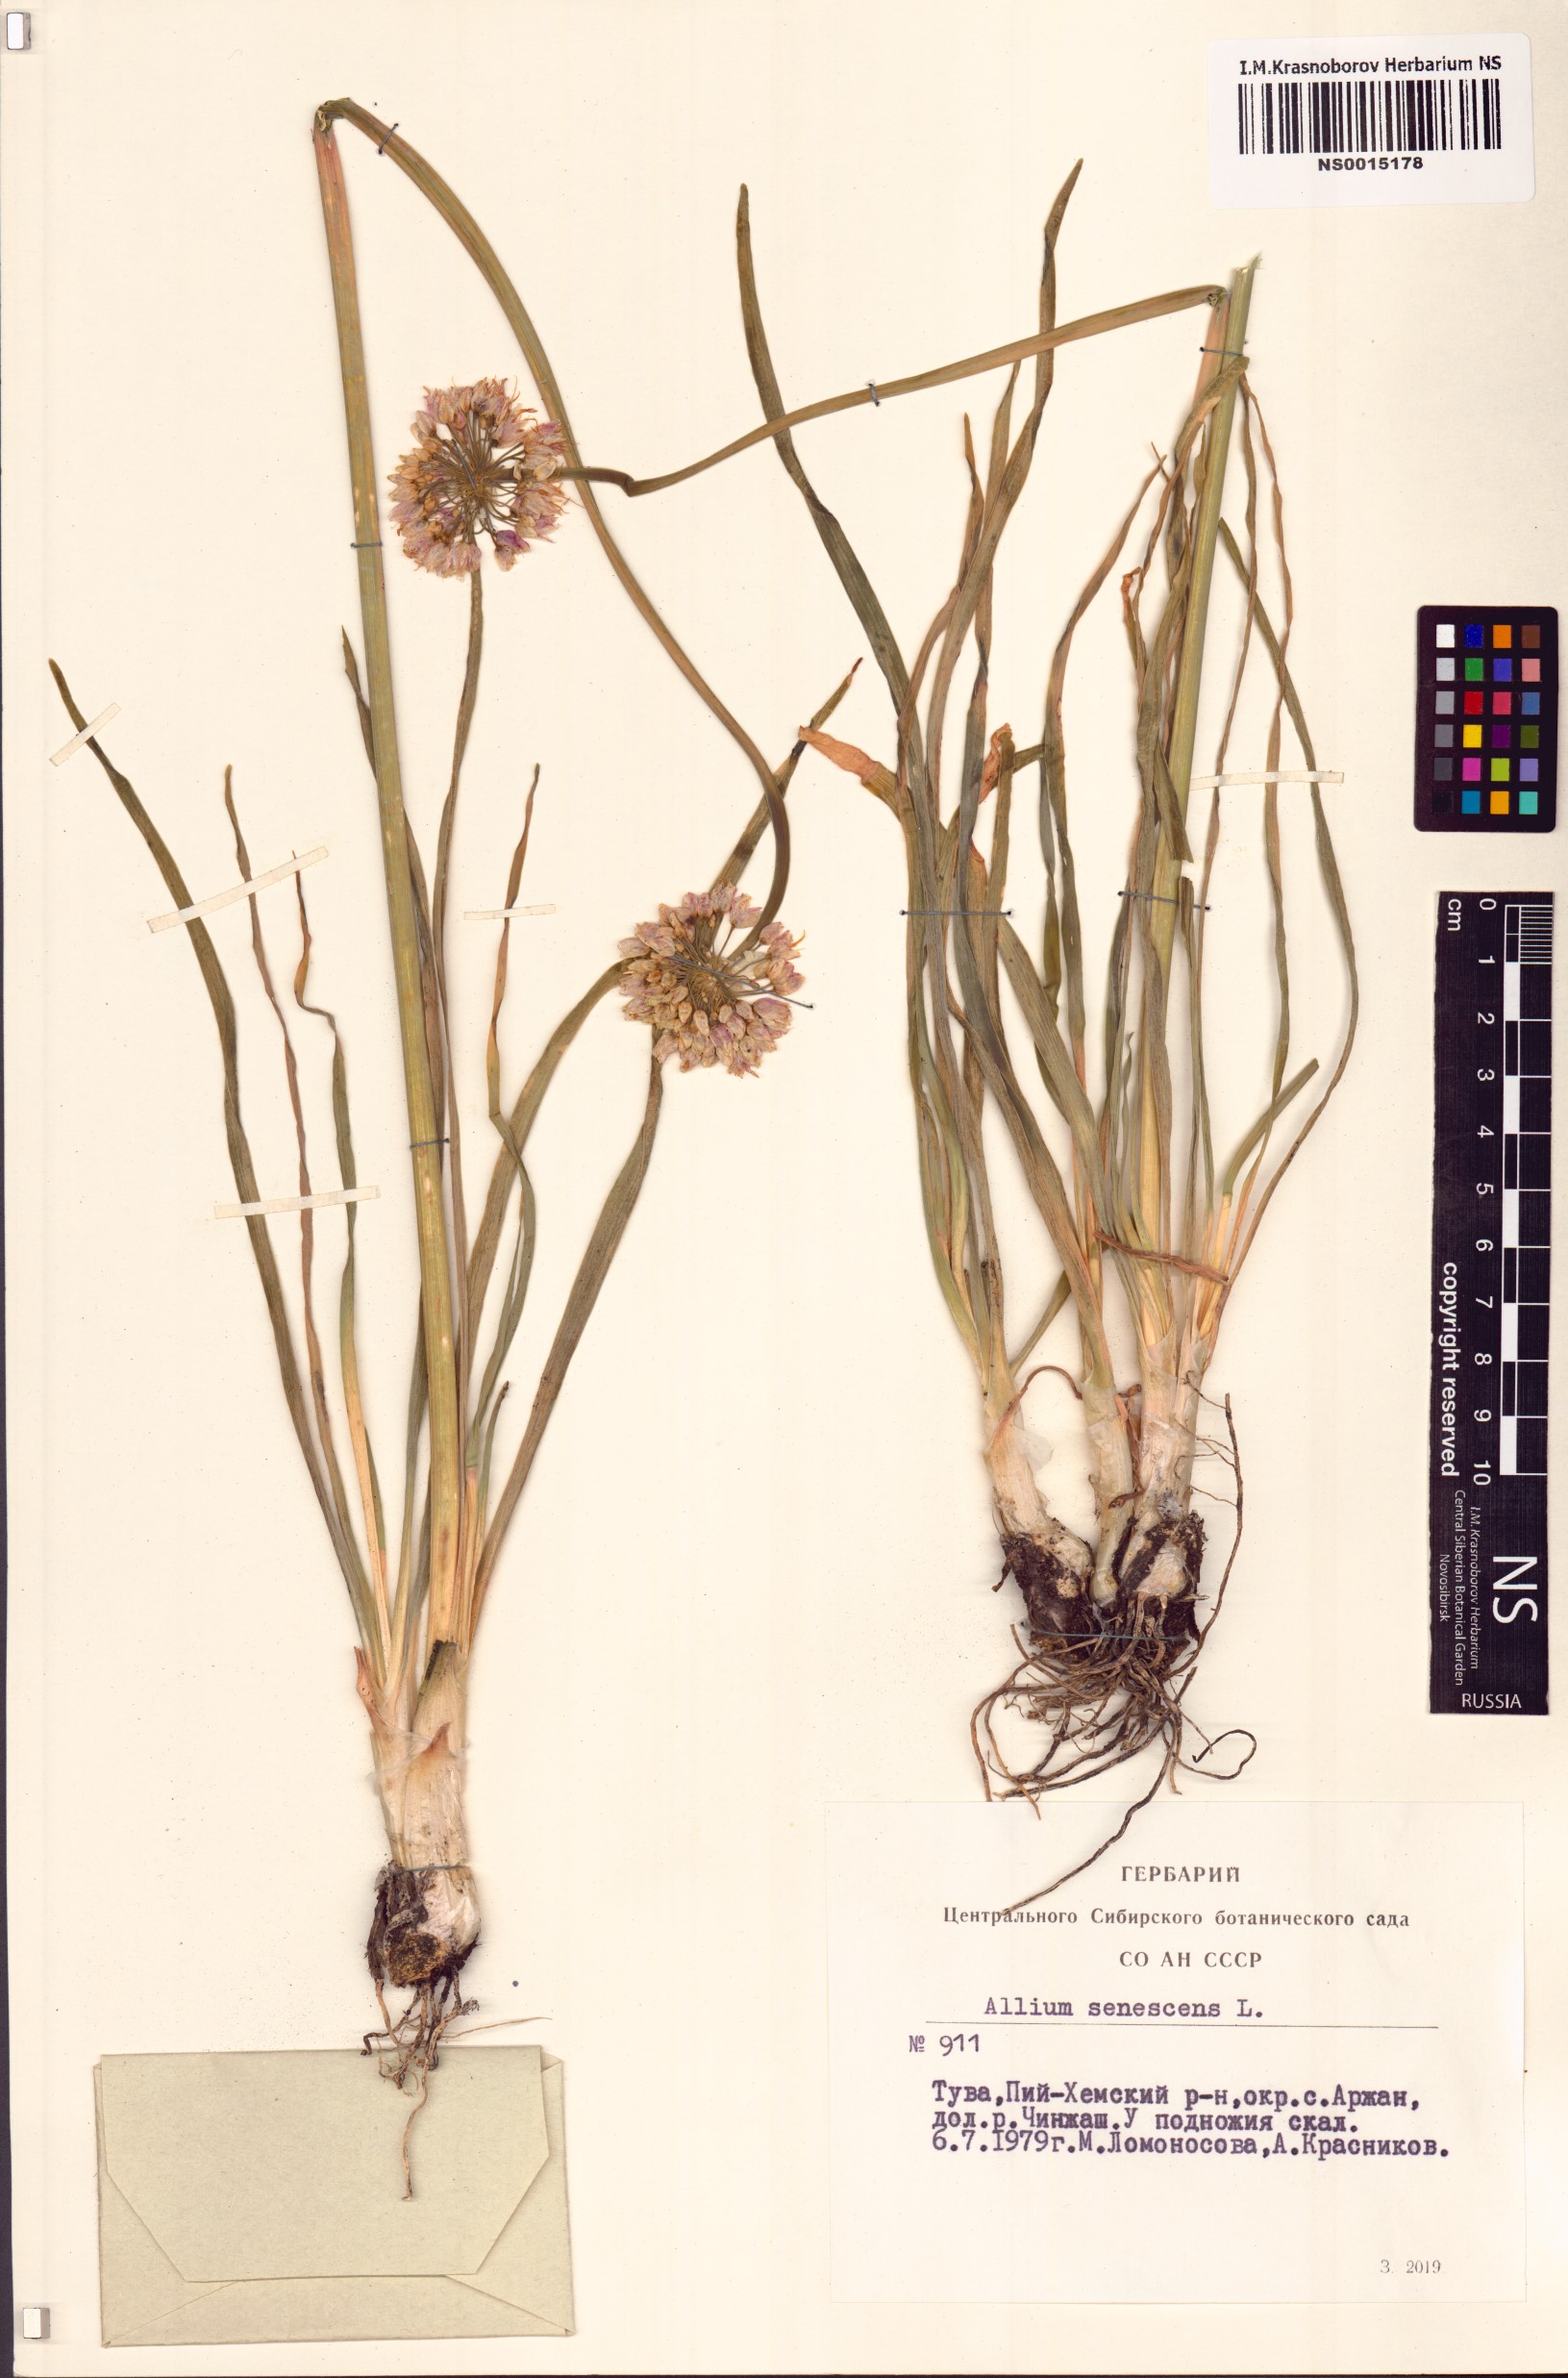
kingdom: Plantae
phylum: Tracheophyta
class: Liliopsida
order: Asparagales
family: Amaryllidaceae
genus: Allium
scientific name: Allium senescens
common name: German garlic
